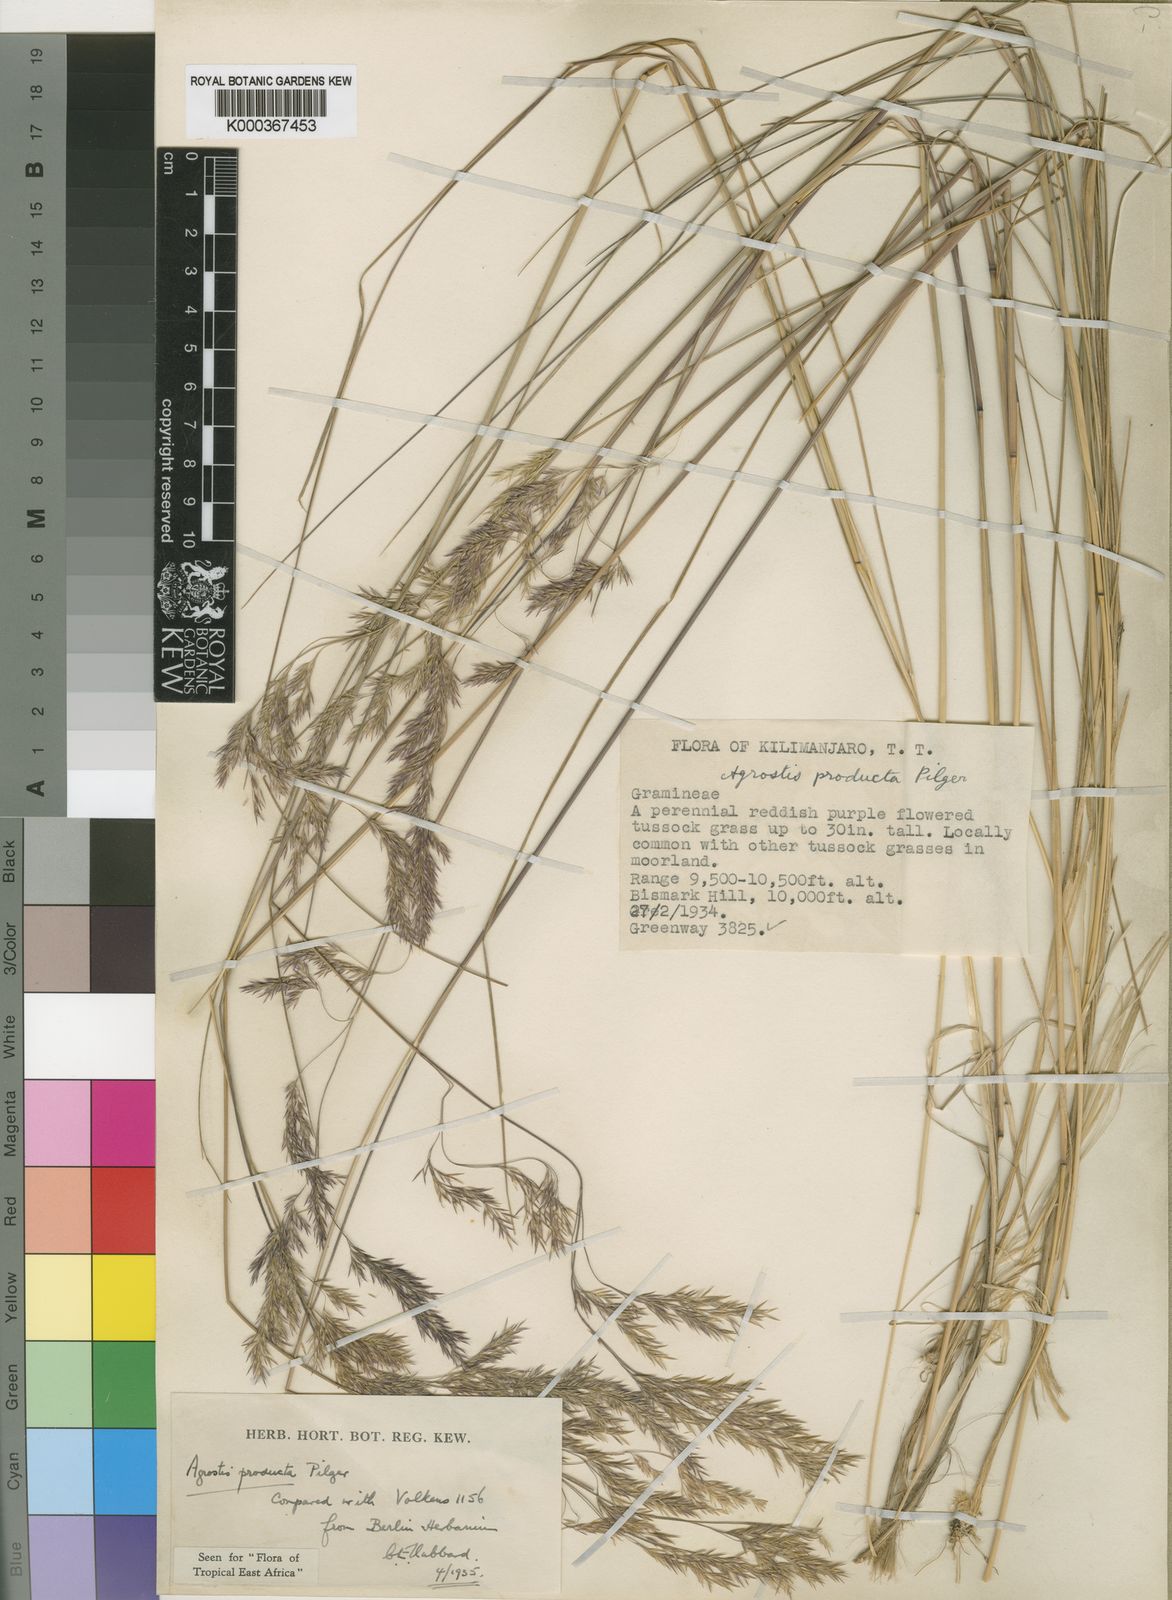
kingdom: Plantae
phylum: Tracheophyta
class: Liliopsida
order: Poales
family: Poaceae
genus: Agrostis
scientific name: Agrostis producta
